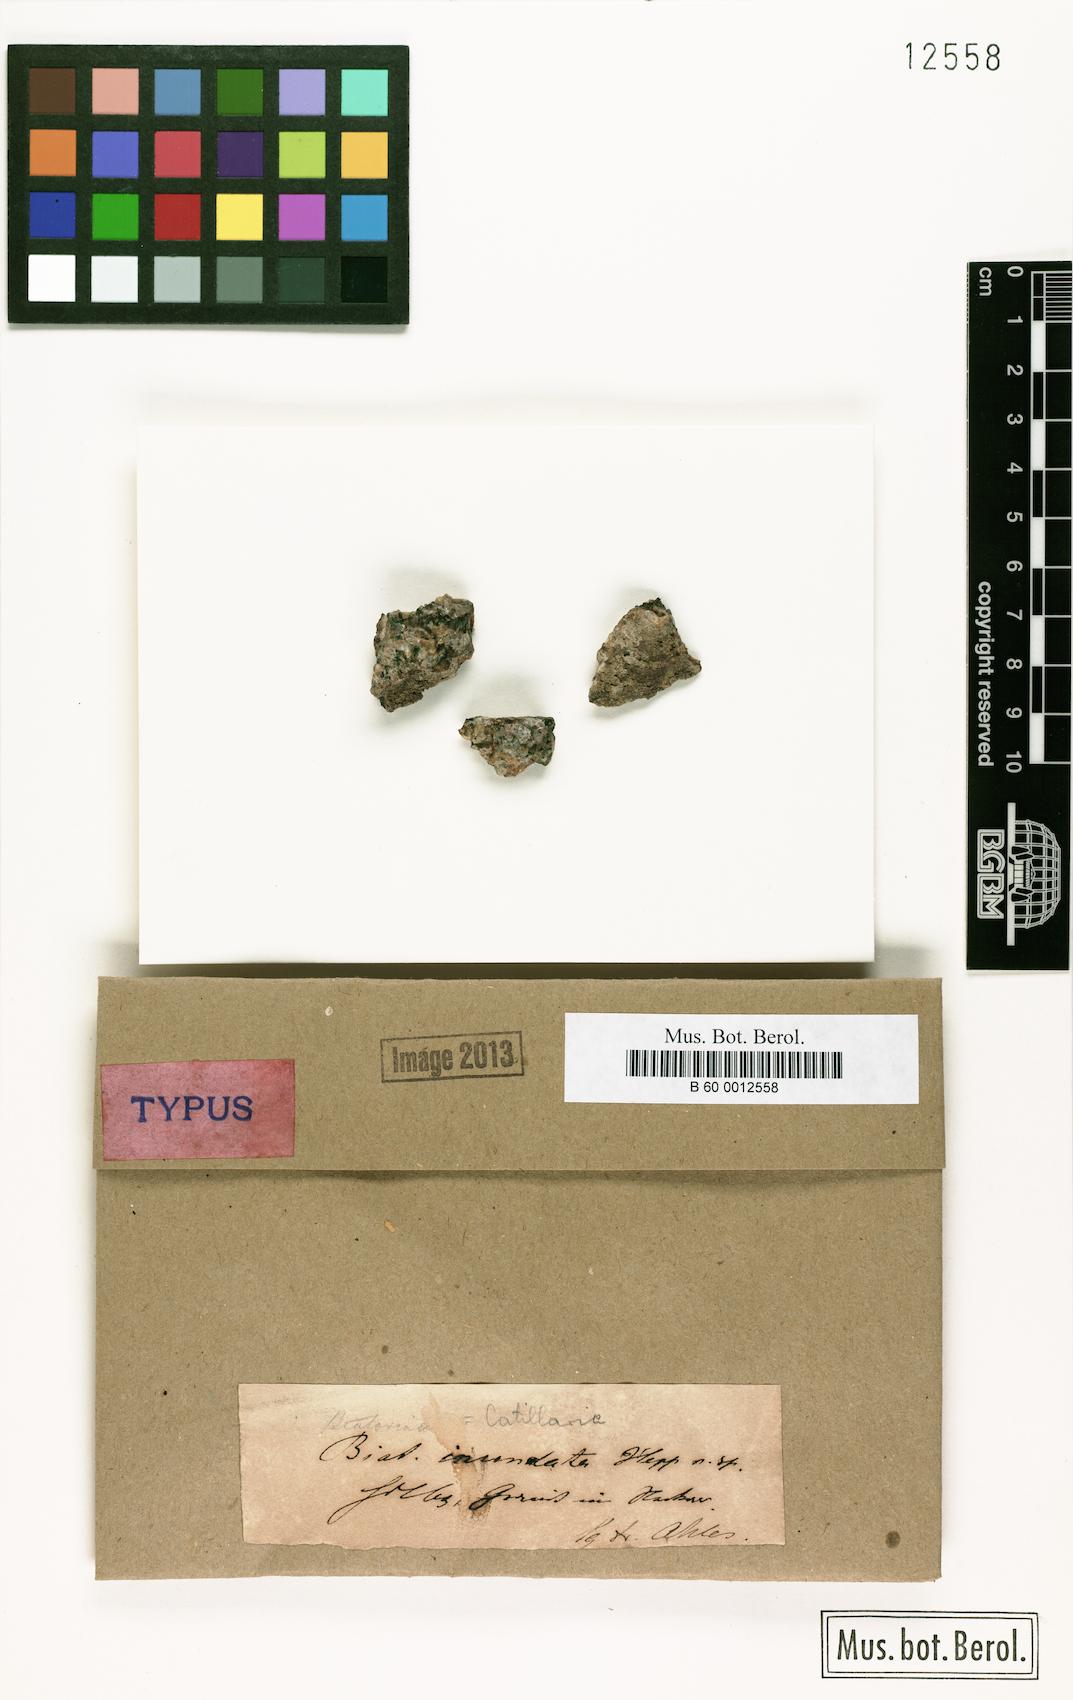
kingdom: Fungi
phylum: Ascomycota
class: Lecanoromycetes
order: Lecanorales
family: Catillariaceae
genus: Catillaria
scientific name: Catillaria
